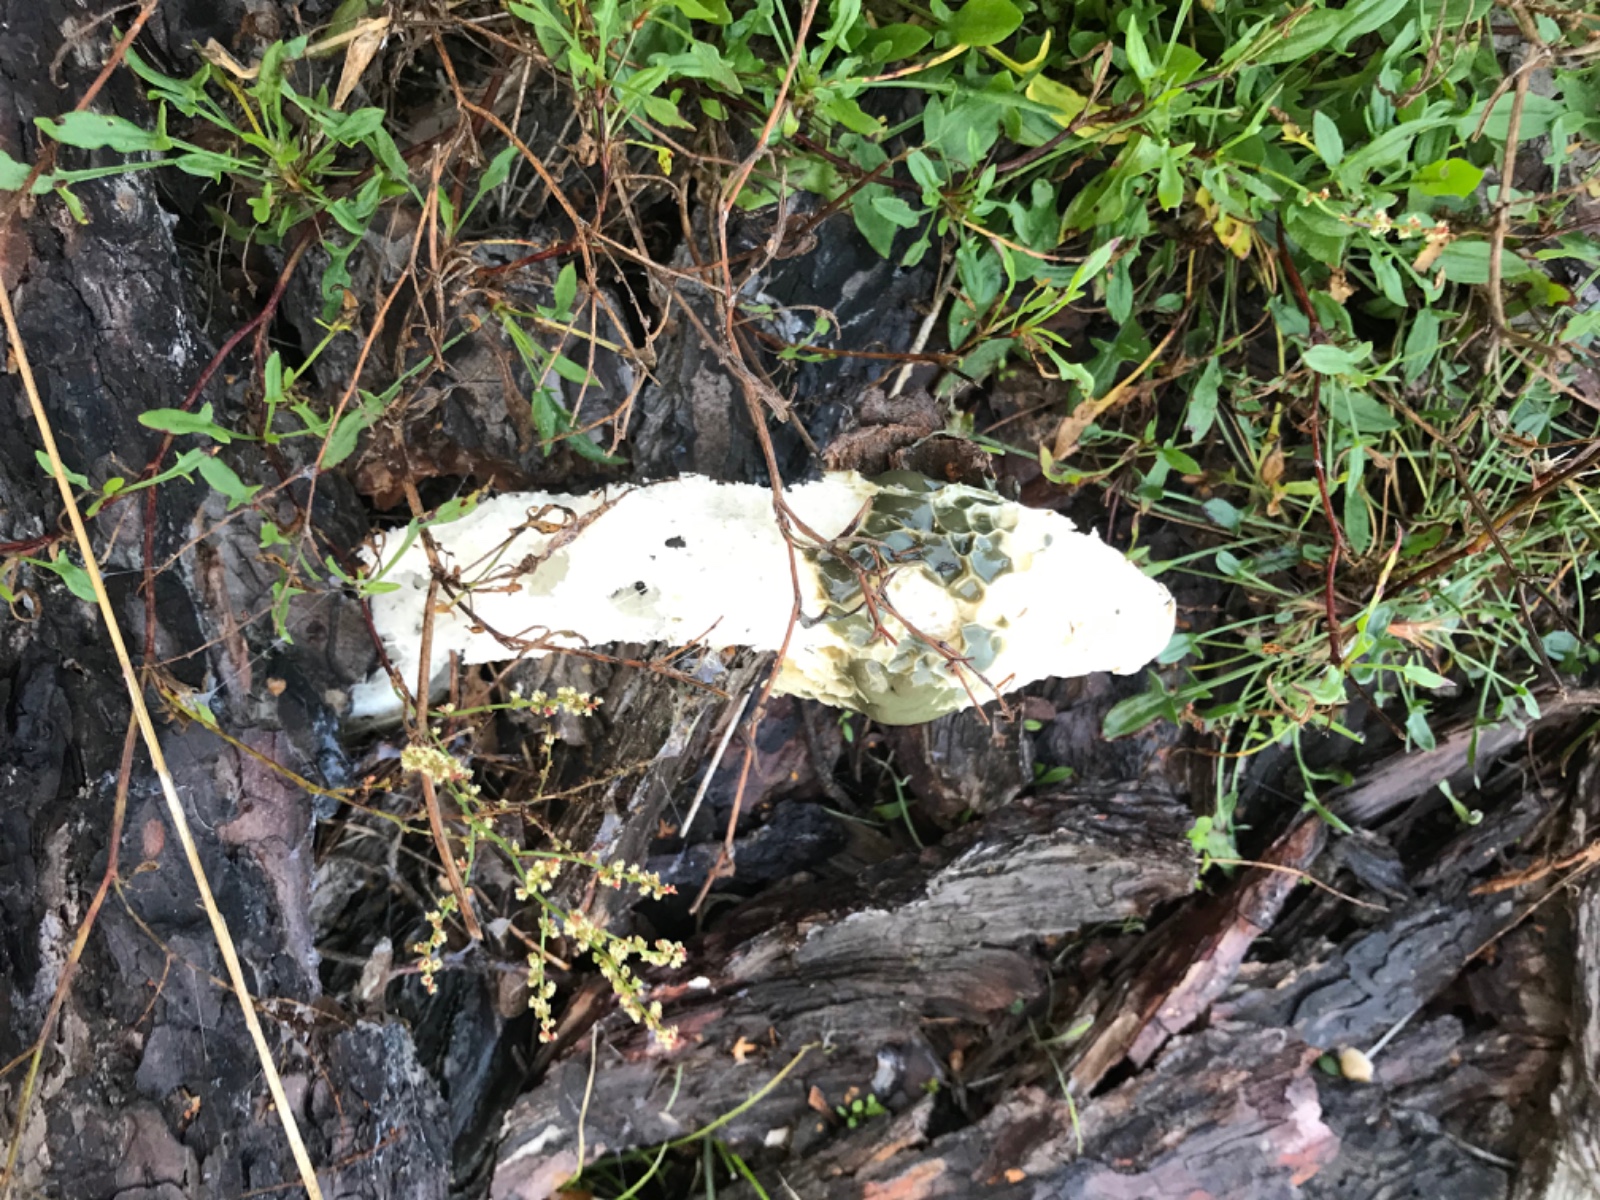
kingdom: Fungi
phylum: Basidiomycota
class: Agaricomycetes
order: Phallales
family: Phallaceae
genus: Phallus
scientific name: Phallus impudicus
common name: almindelig stinksvamp
